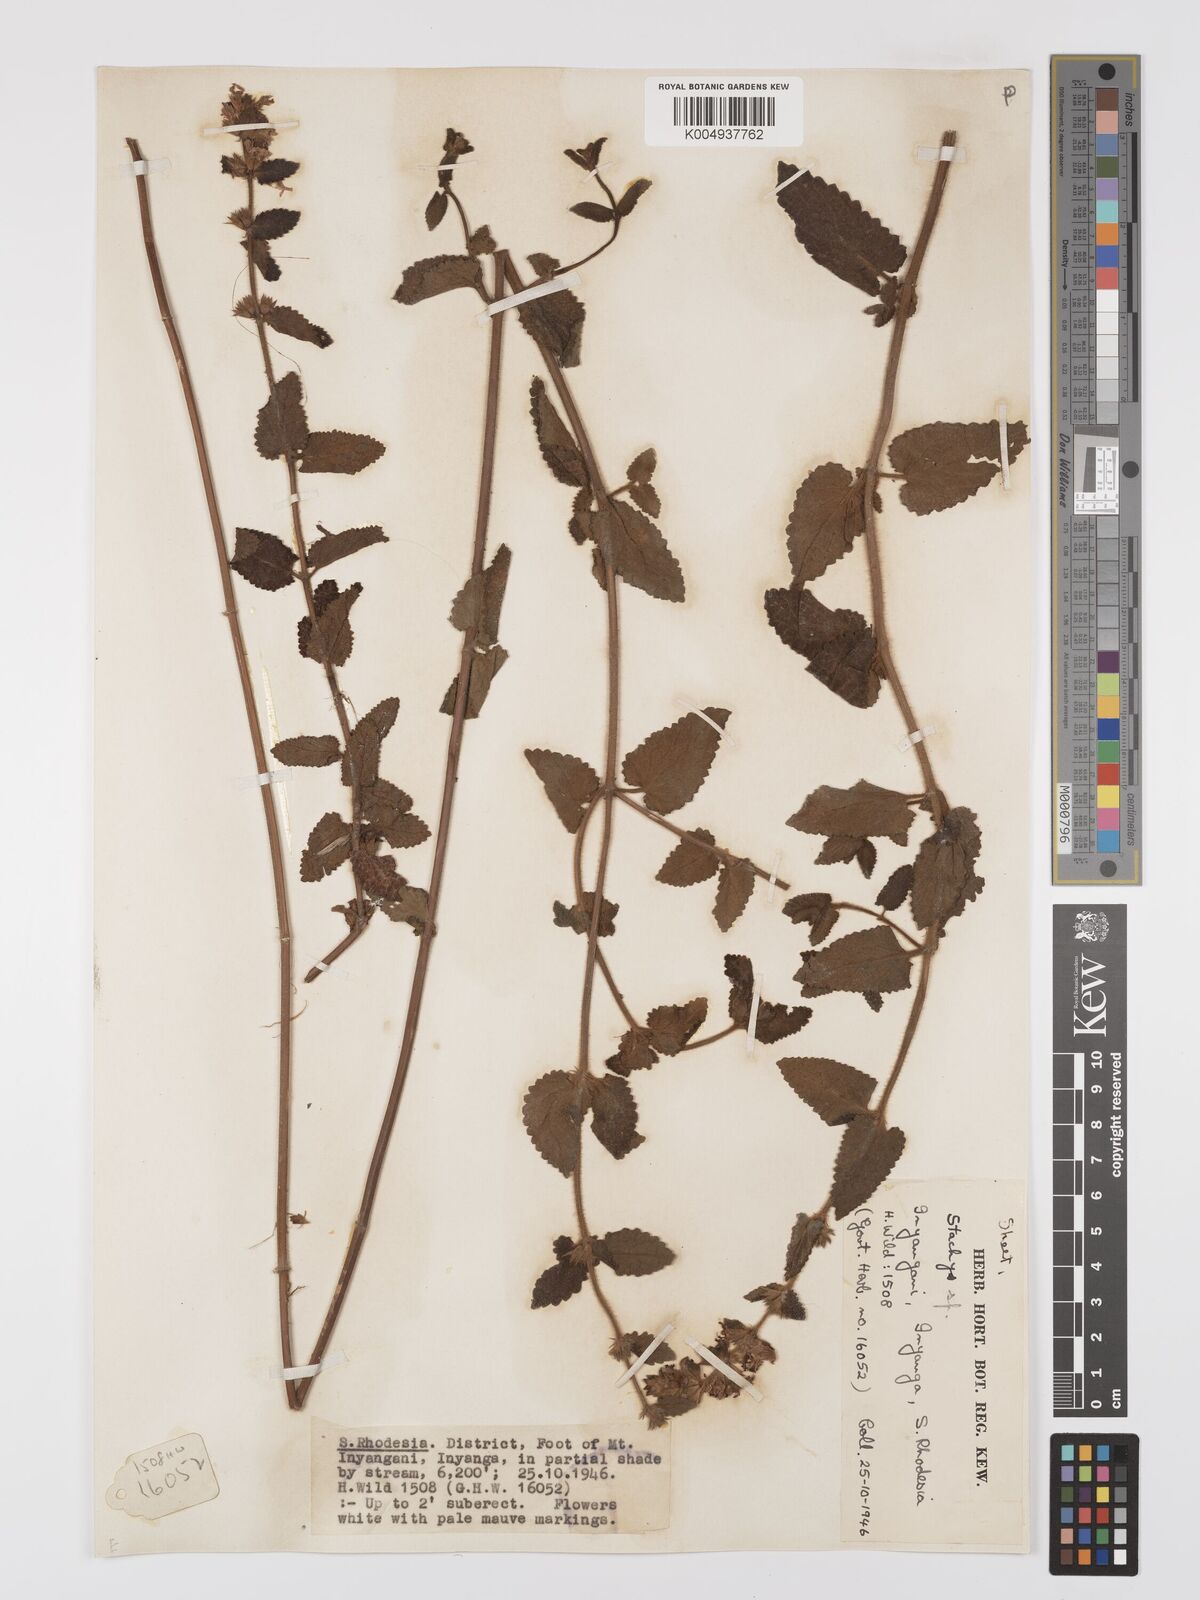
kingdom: Plantae
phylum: Tracheophyta
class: Magnoliopsida
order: Lamiales
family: Lamiaceae
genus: Stachys
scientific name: Stachys aethiopica
